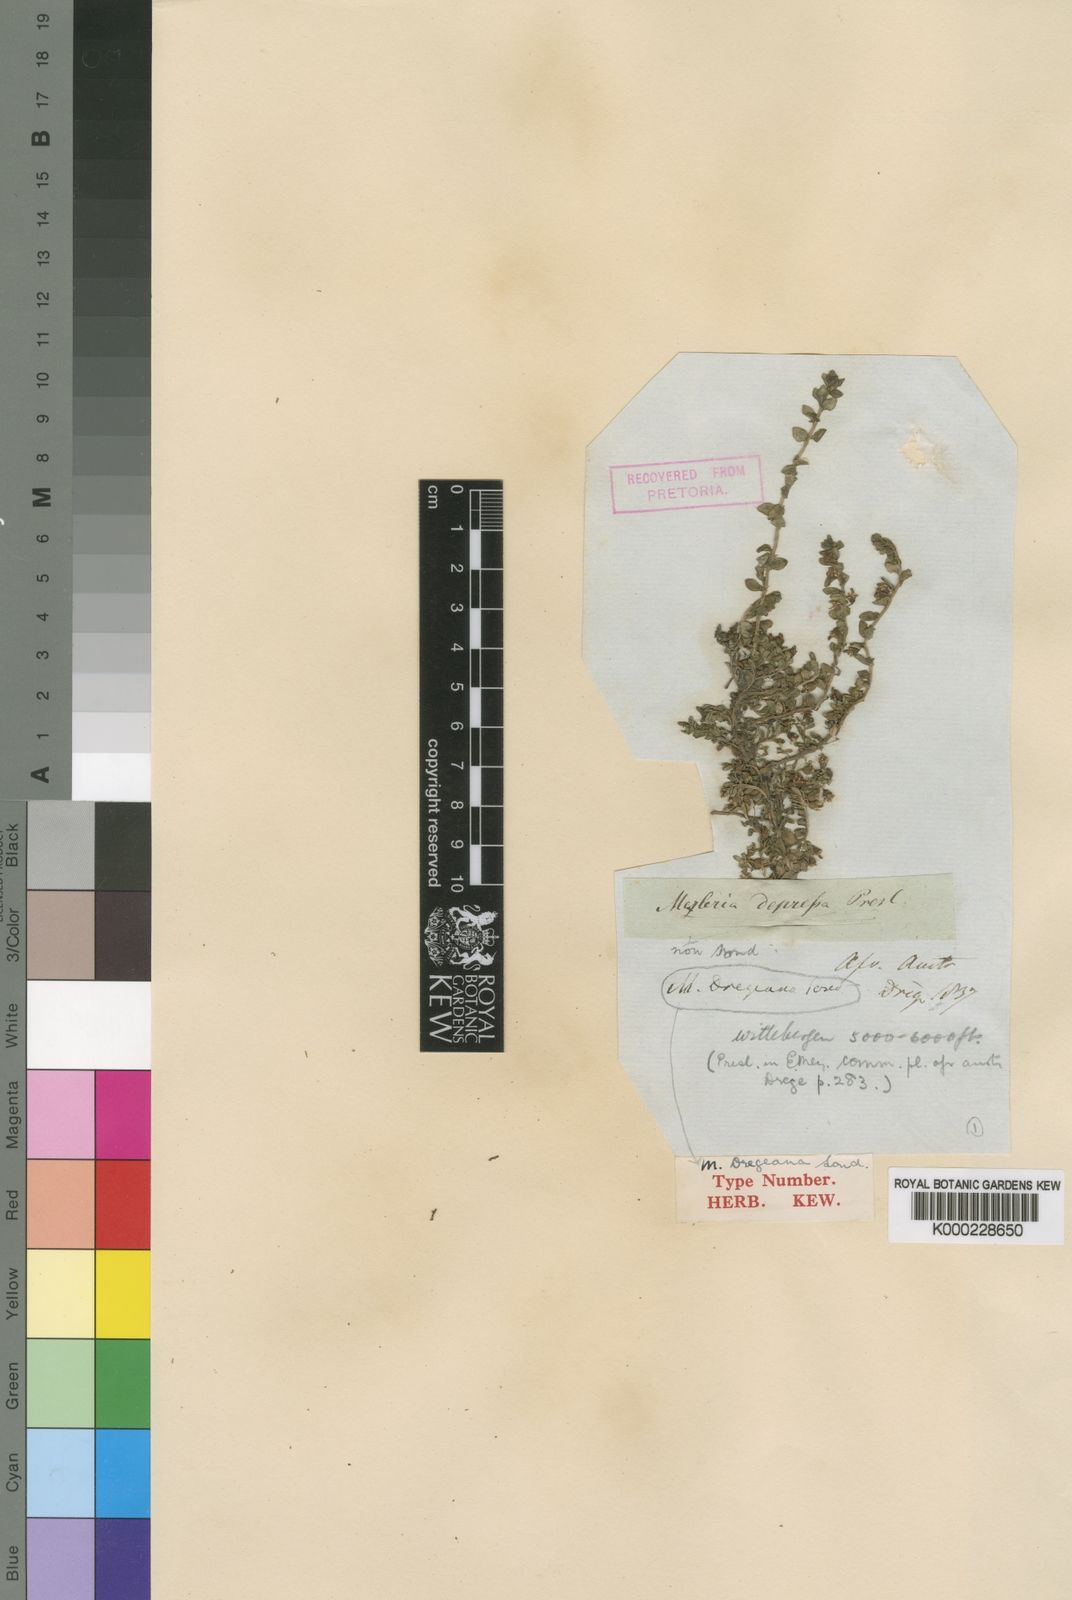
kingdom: Plantae
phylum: Tracheophyta
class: Magnoliopsida
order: Asterales
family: Campanulaceae
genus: Lobelia
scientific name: Lobelia dregeana
